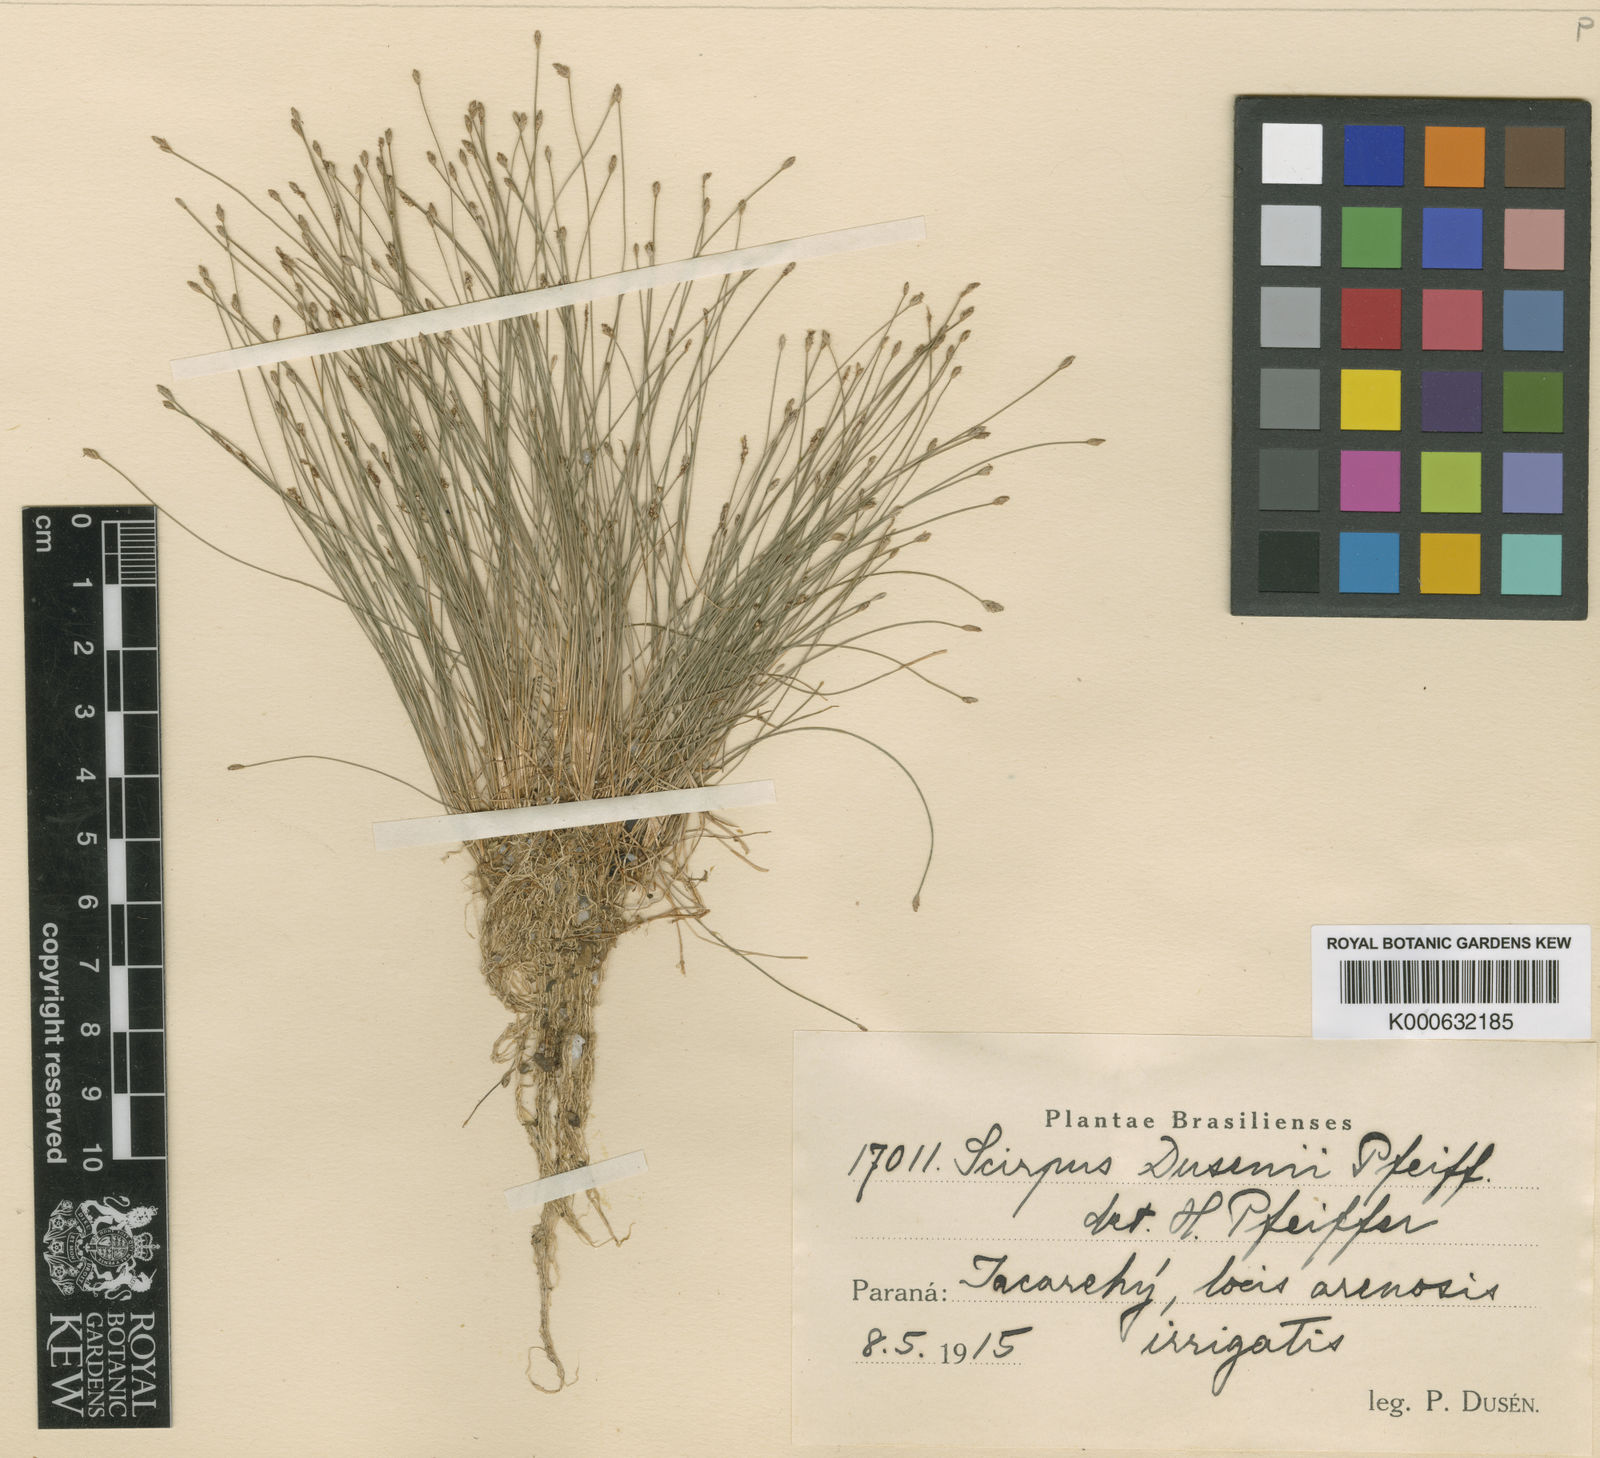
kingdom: Plantae
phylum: Tracheophyta
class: Liliopsida
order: Poales
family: Cyperaceae
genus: Eleocharis
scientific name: Eleocharis
